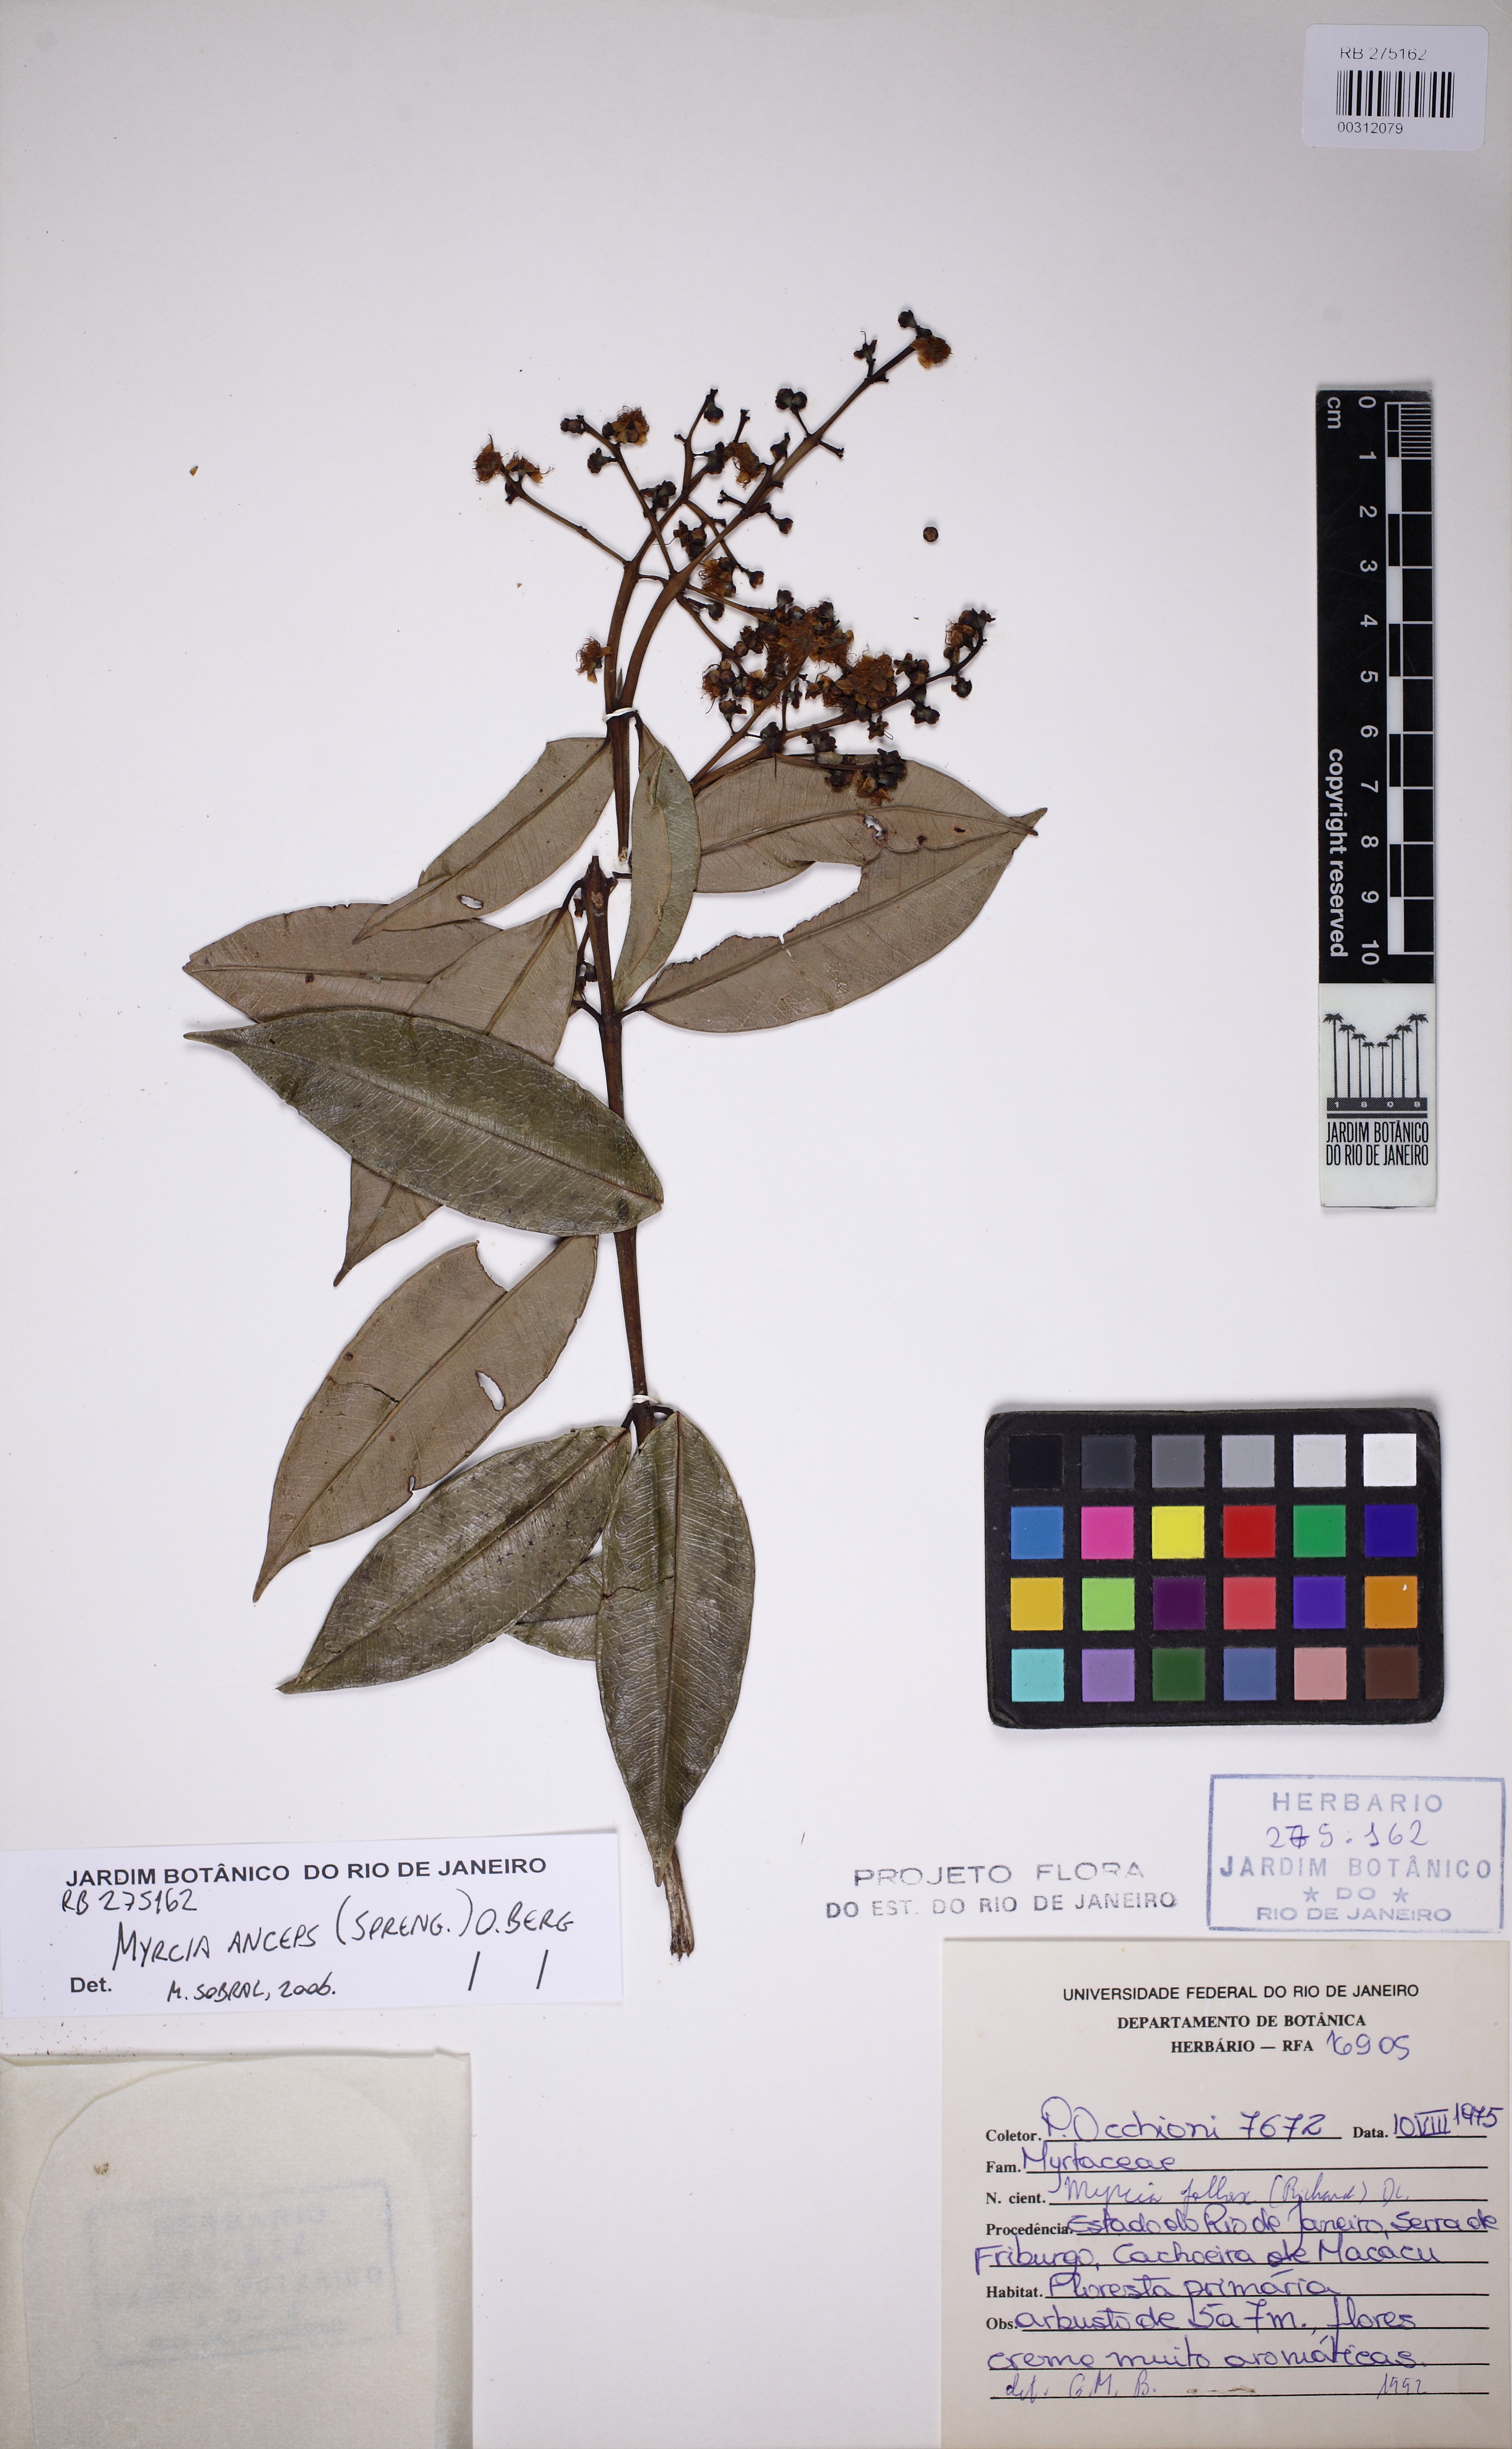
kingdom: Plantae
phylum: Tracheophyta
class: Magnoliopsida
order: Myrtales
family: Myrtaceae
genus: Myrcia
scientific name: Myrcia anceps
